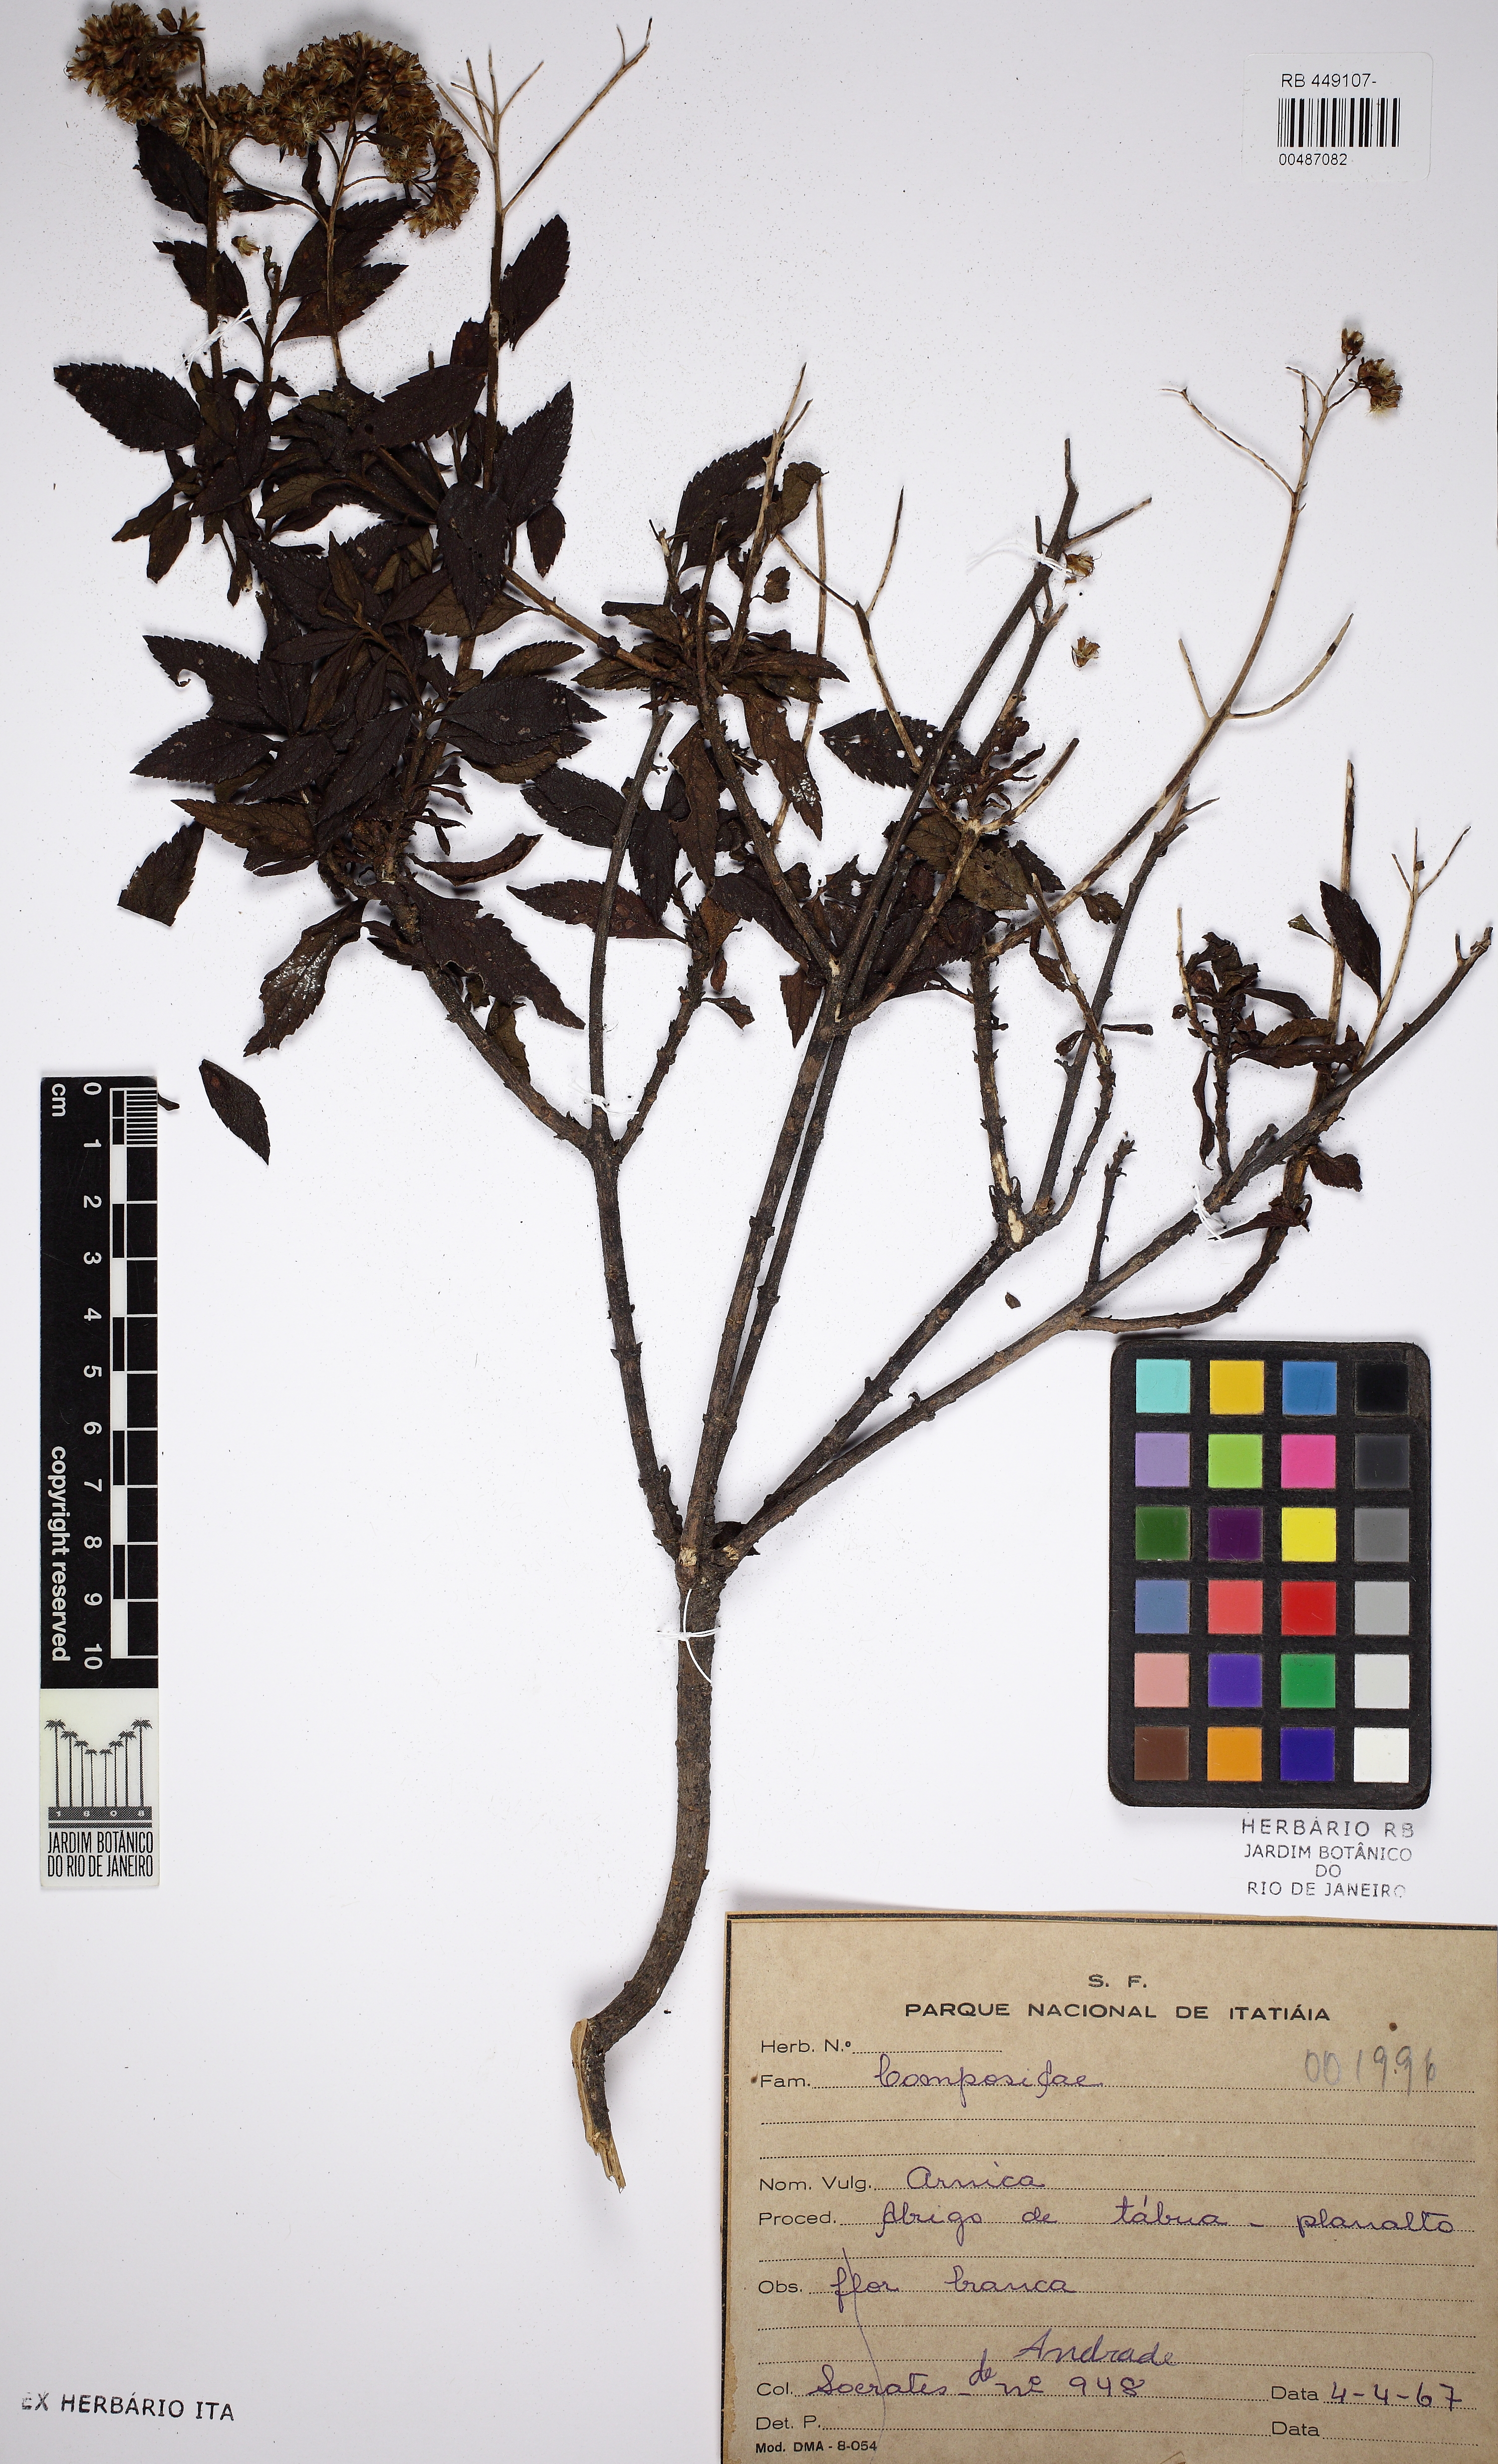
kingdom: Plantae
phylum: Tracheophyta
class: Magnoliopsida
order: Asterales
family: Asteraceae
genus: Grazielia
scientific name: Grazielia gaudichaudiana
